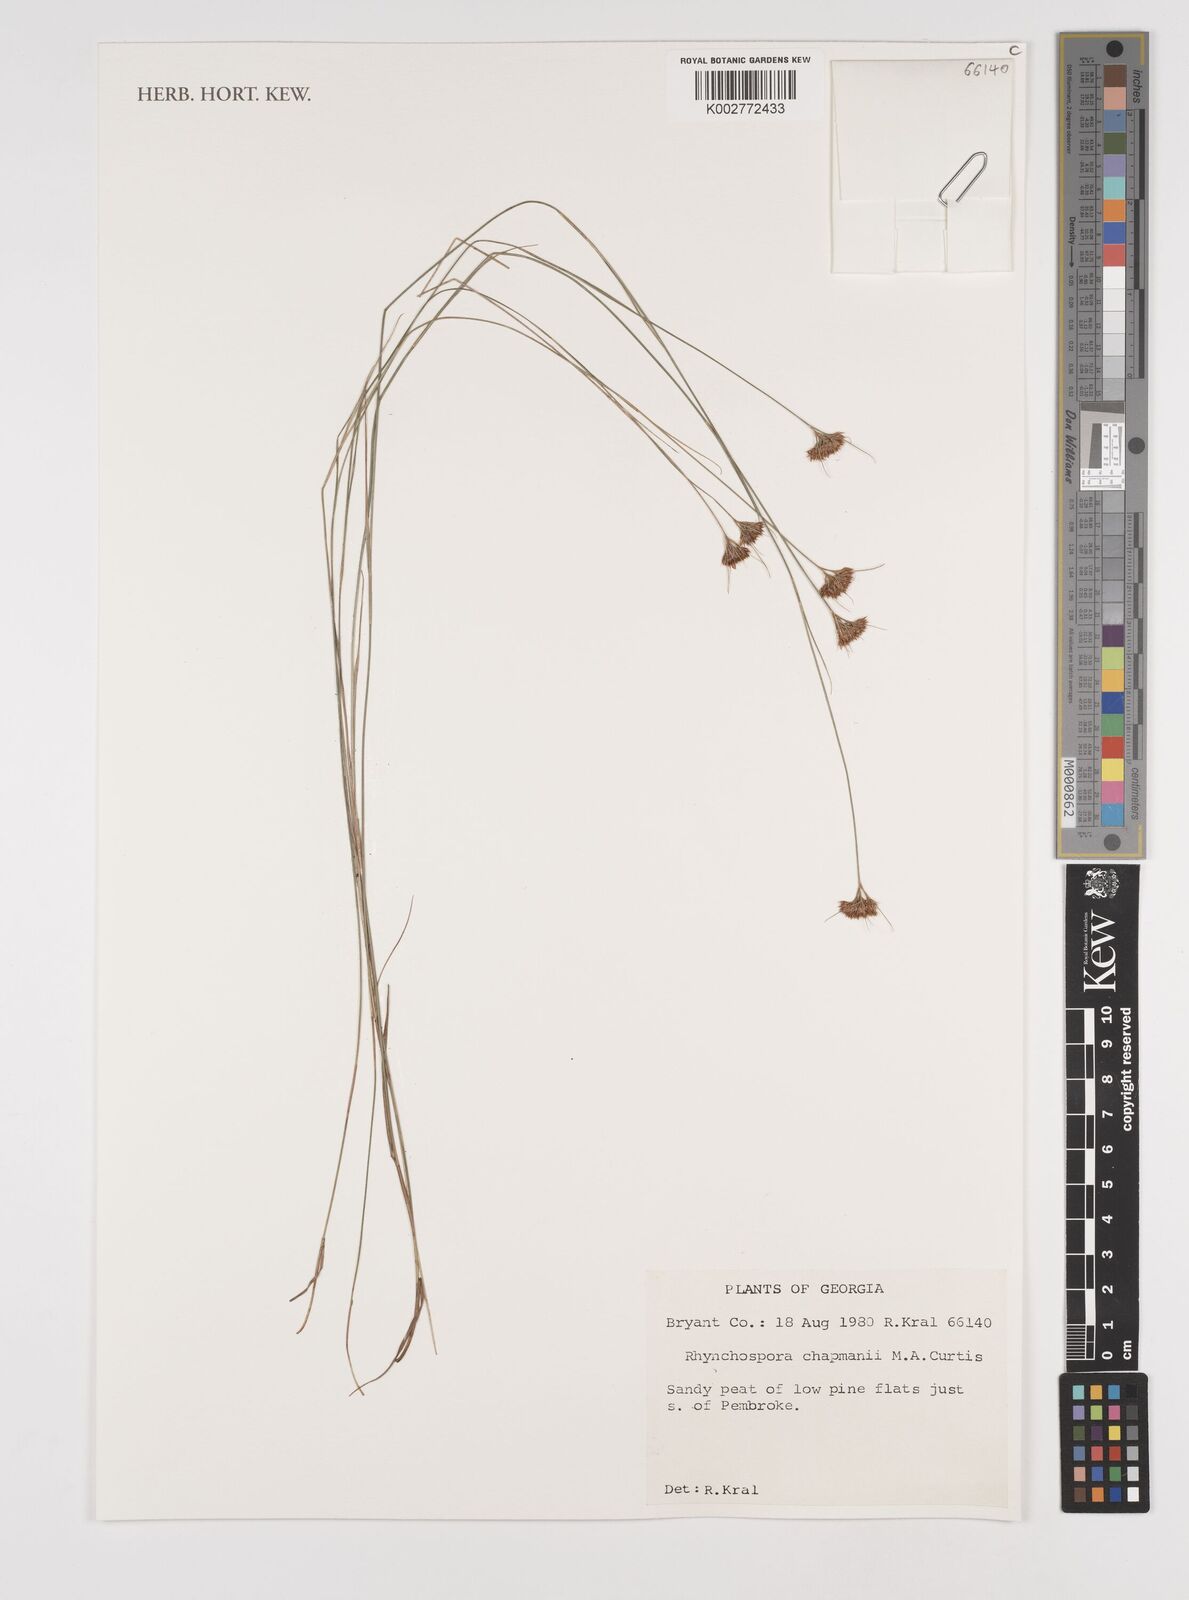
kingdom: Plantae
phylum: Tracheophyta
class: Liliopsida
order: Poales
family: Cyperaceae
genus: Rhynchospora
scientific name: Rhynchospora
